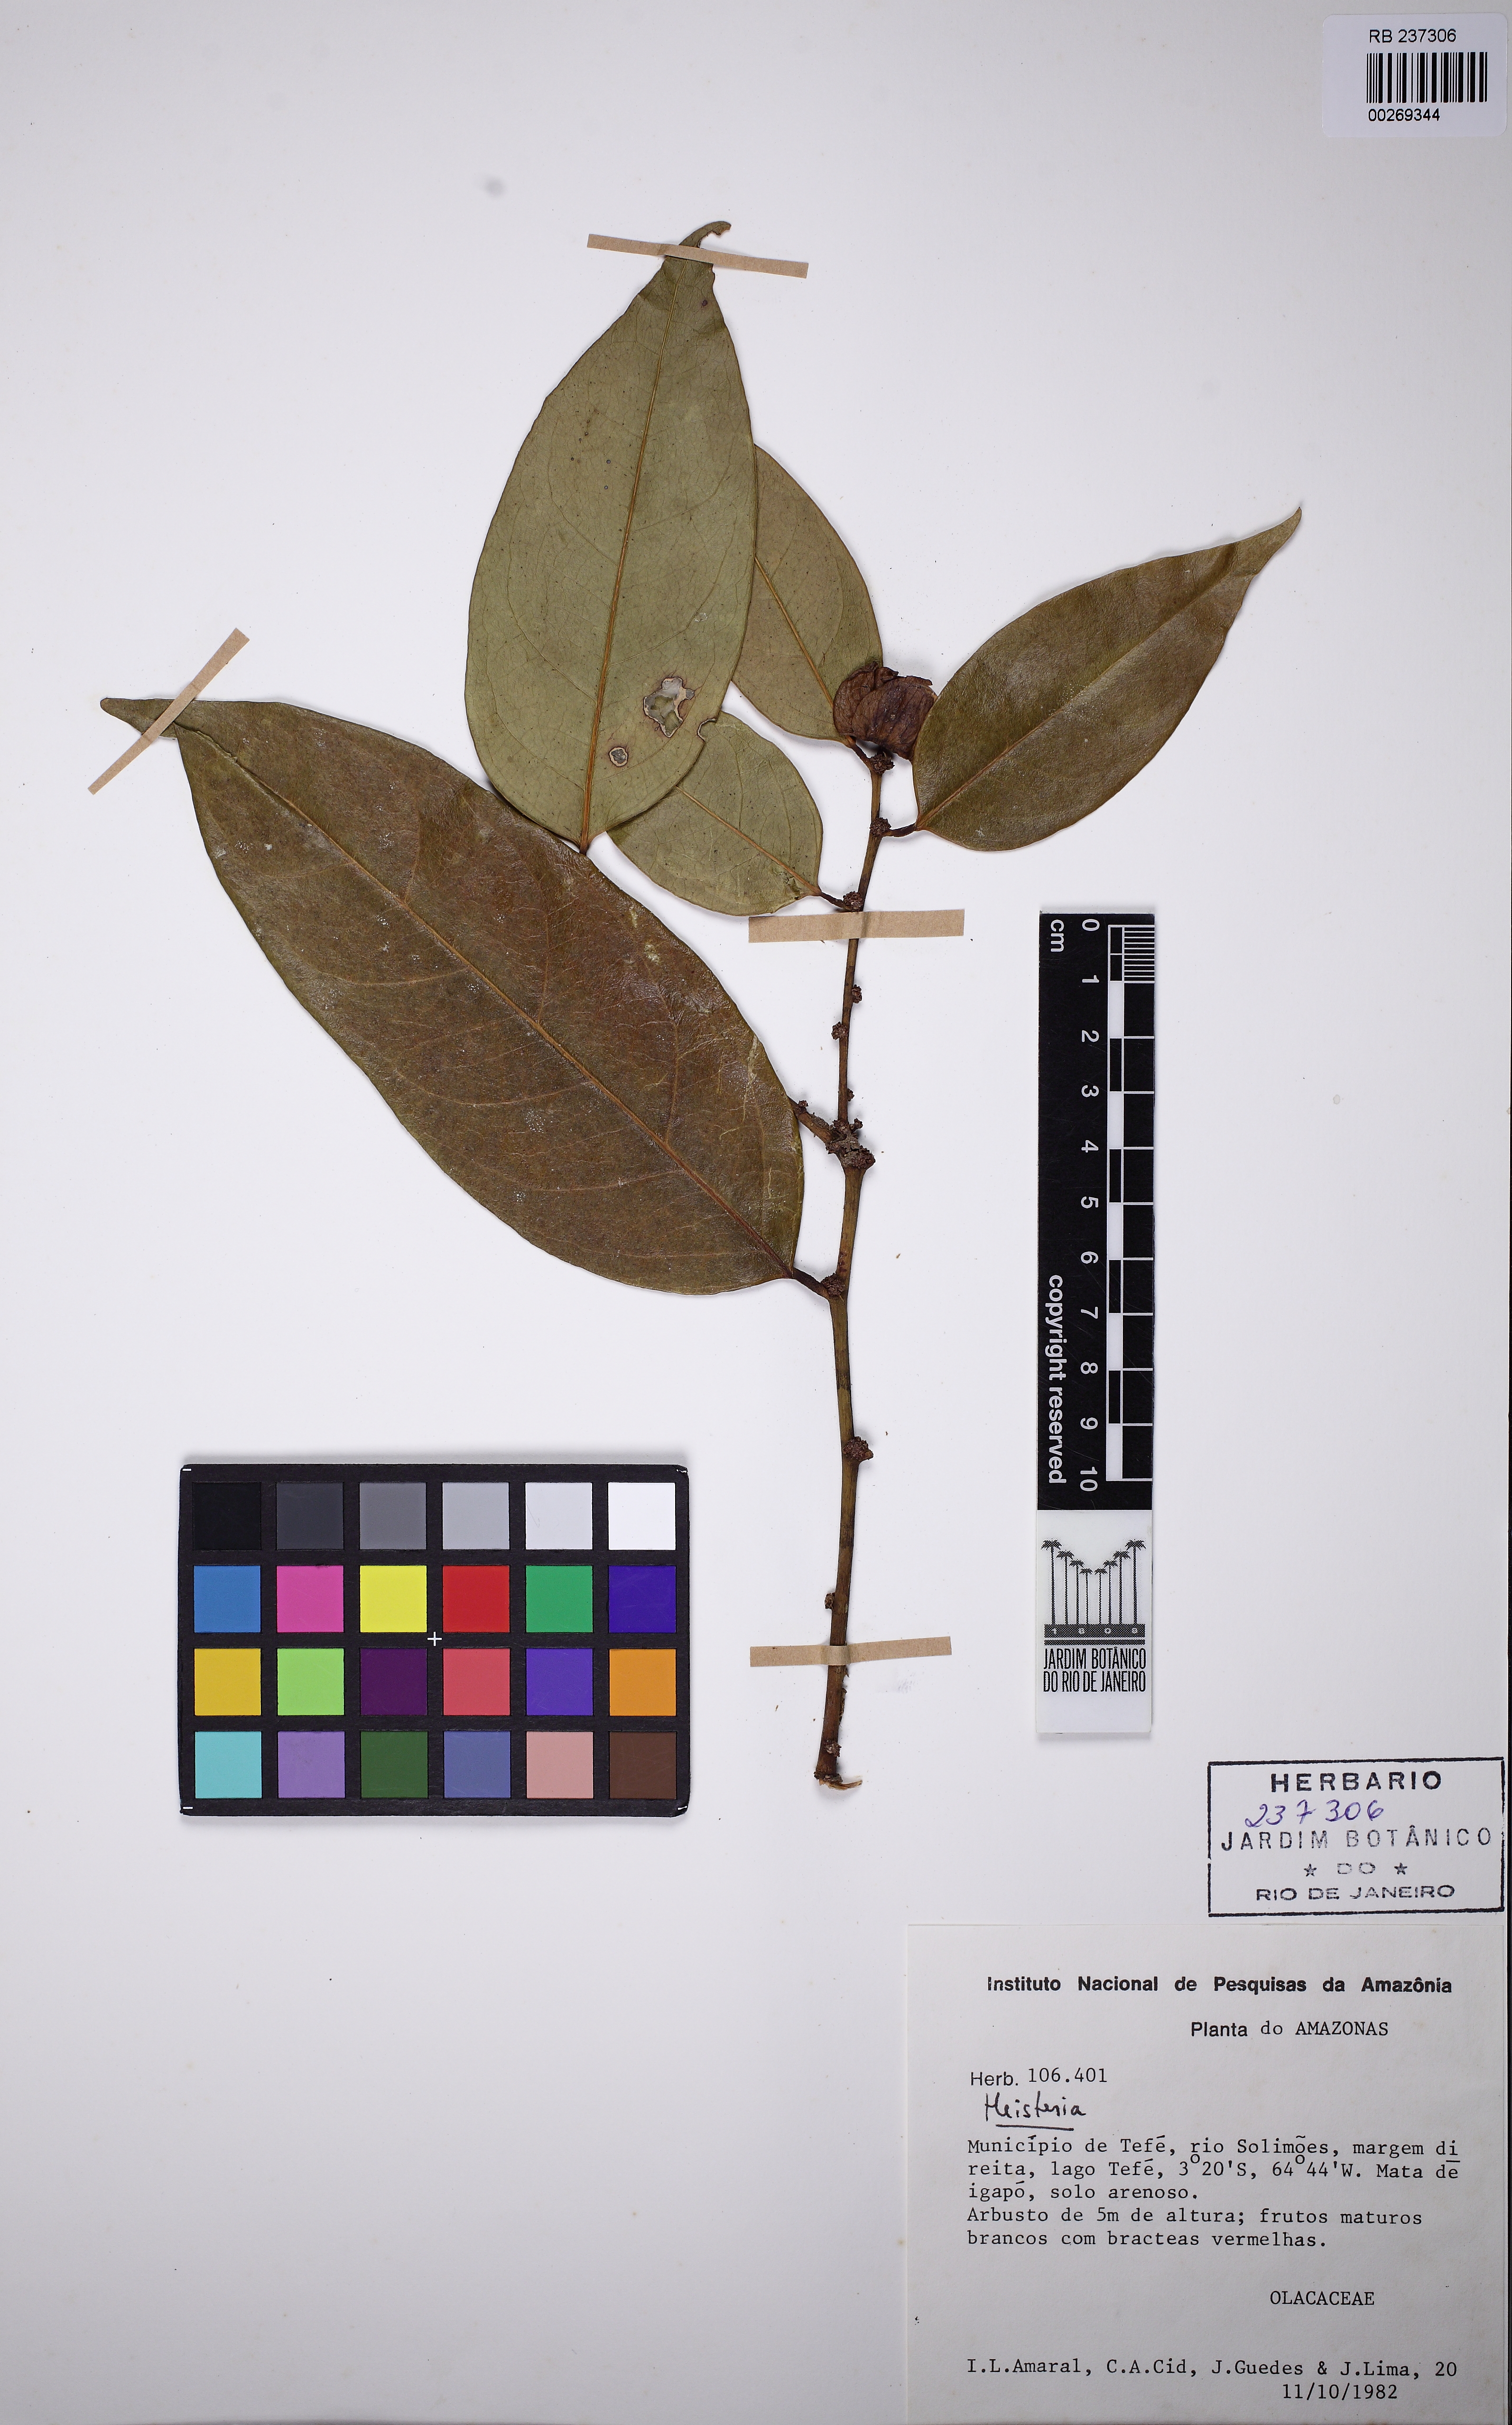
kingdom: Plantae
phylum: Tracheophyta
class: Magnoliopsida
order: Santalales
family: Erythropalaceae
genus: Heisteria
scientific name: Heisteria
